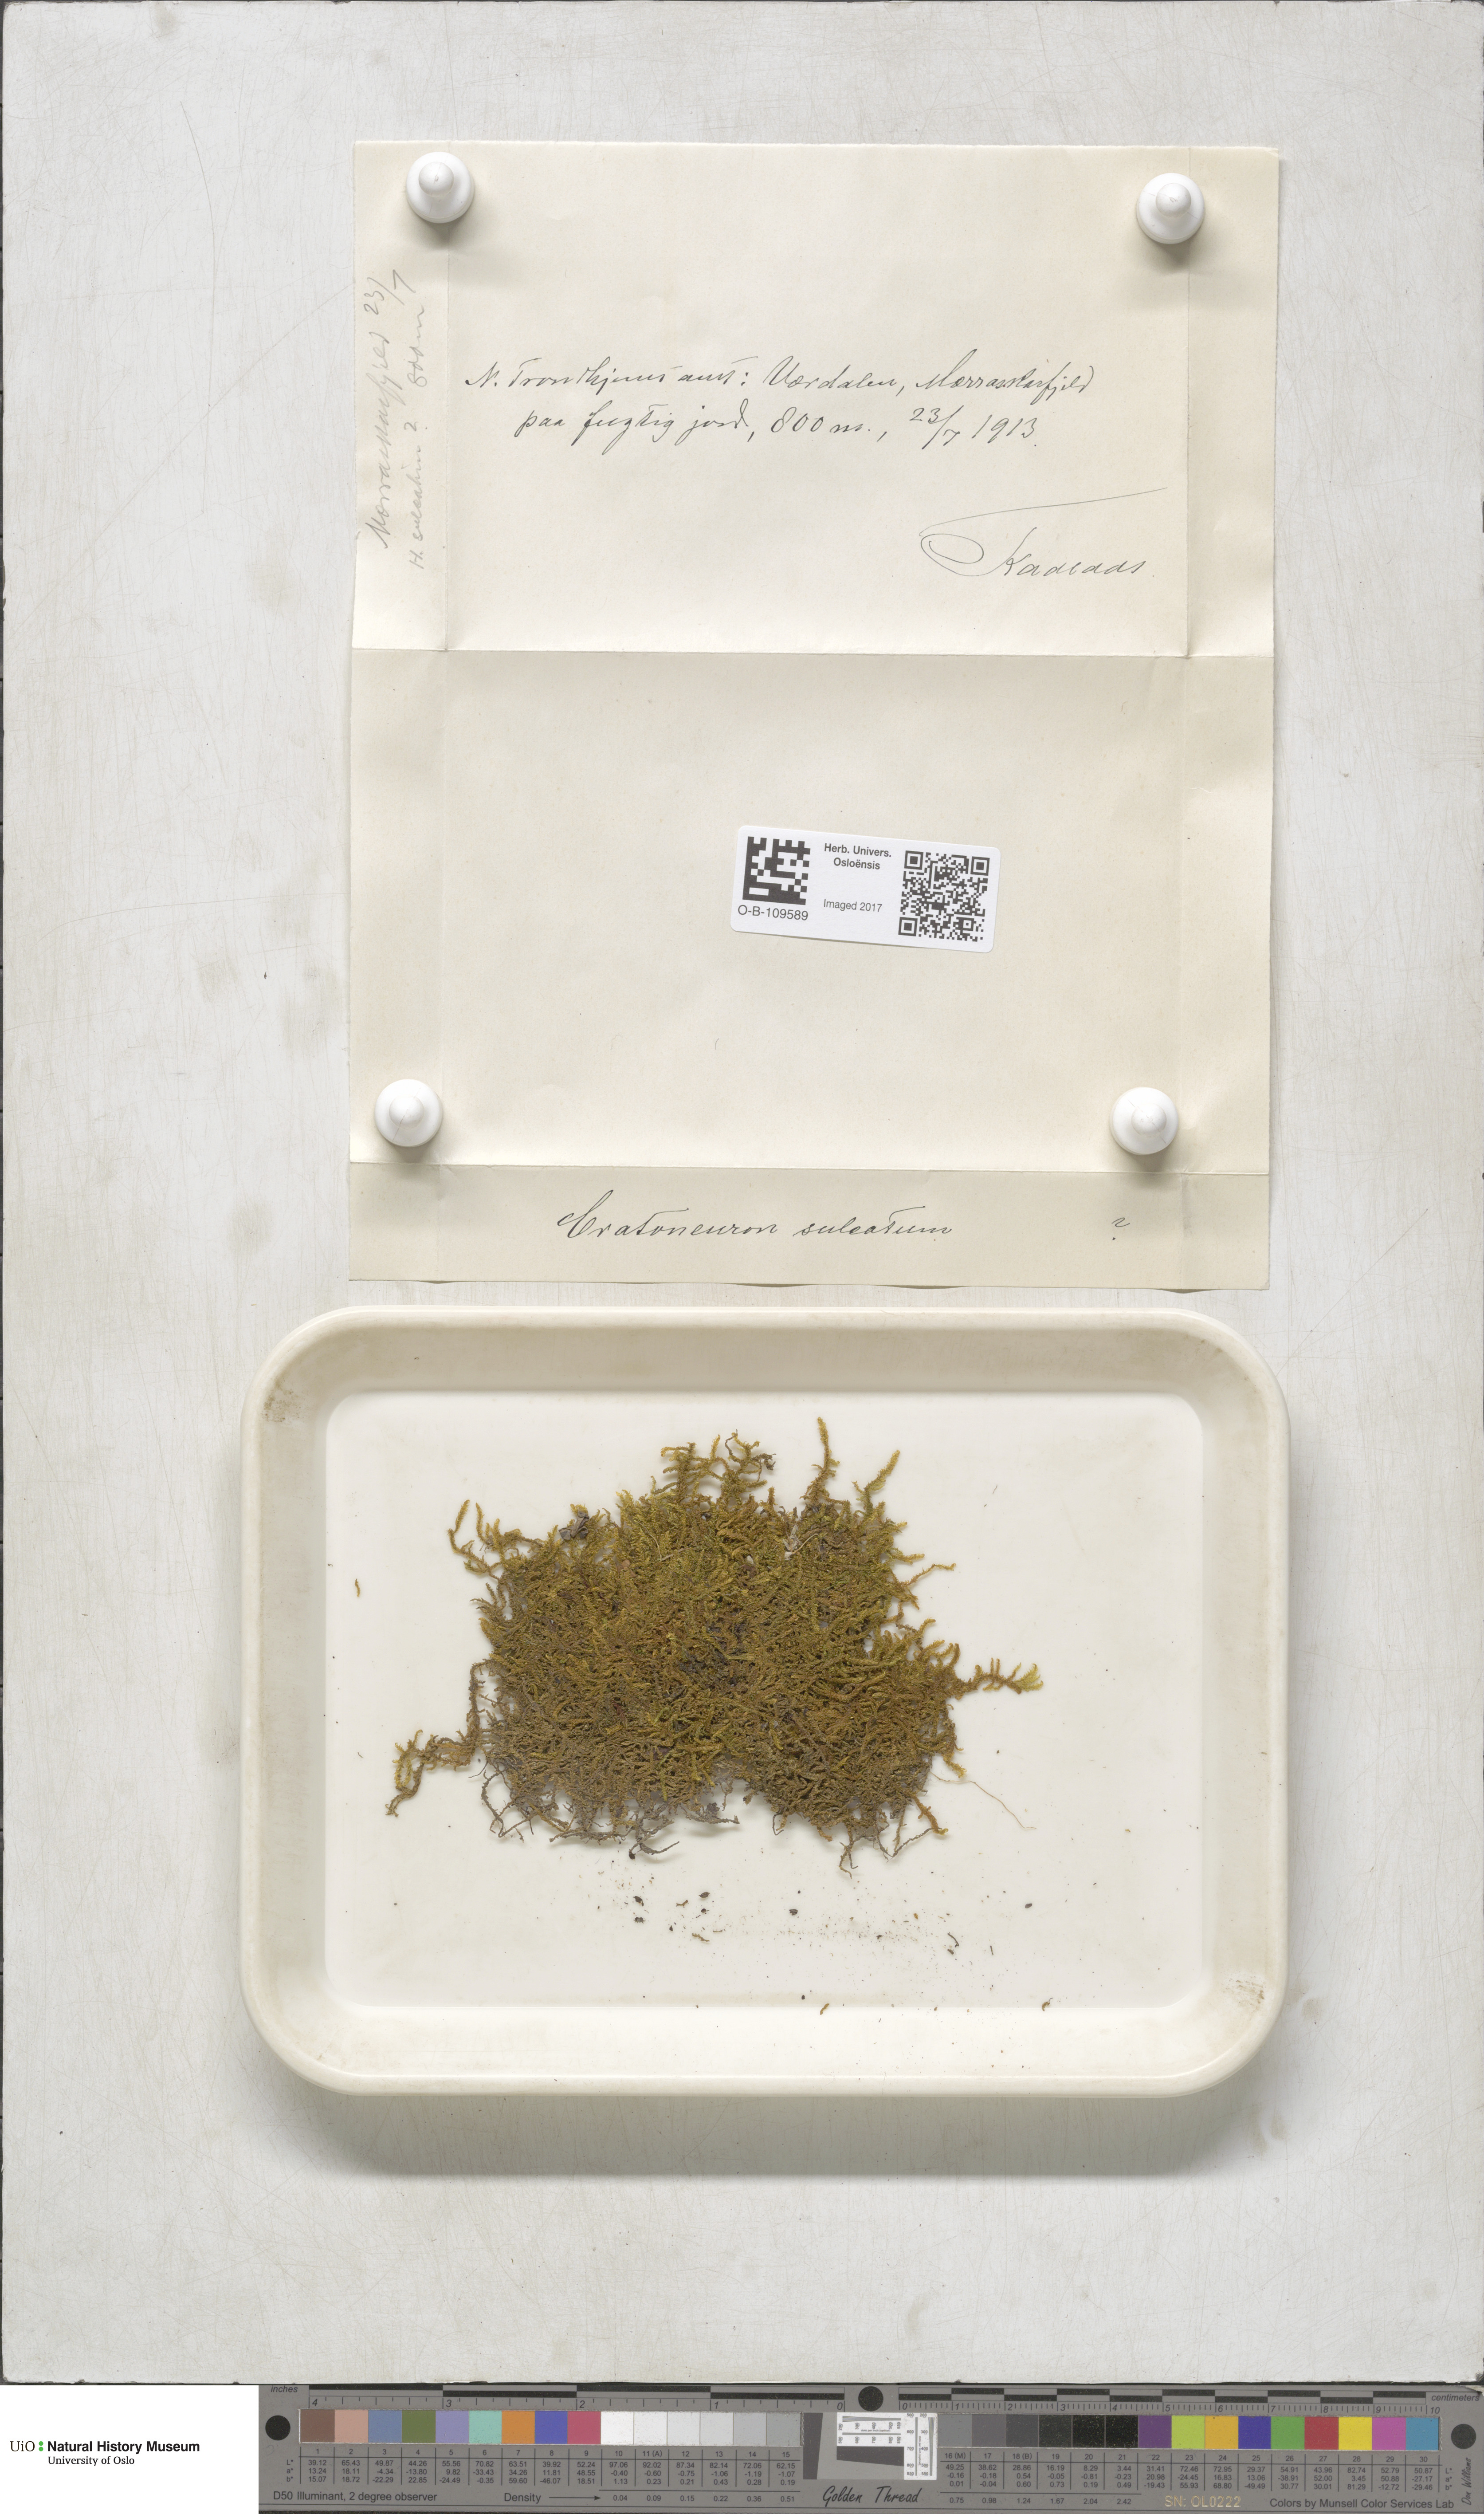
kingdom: Plantae
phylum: Bryophyta
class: Bryopsida
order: Hypnales
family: Amblystegiaceae
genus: Palustriella
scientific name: Palustriella commutata
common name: Curled hook-moss
